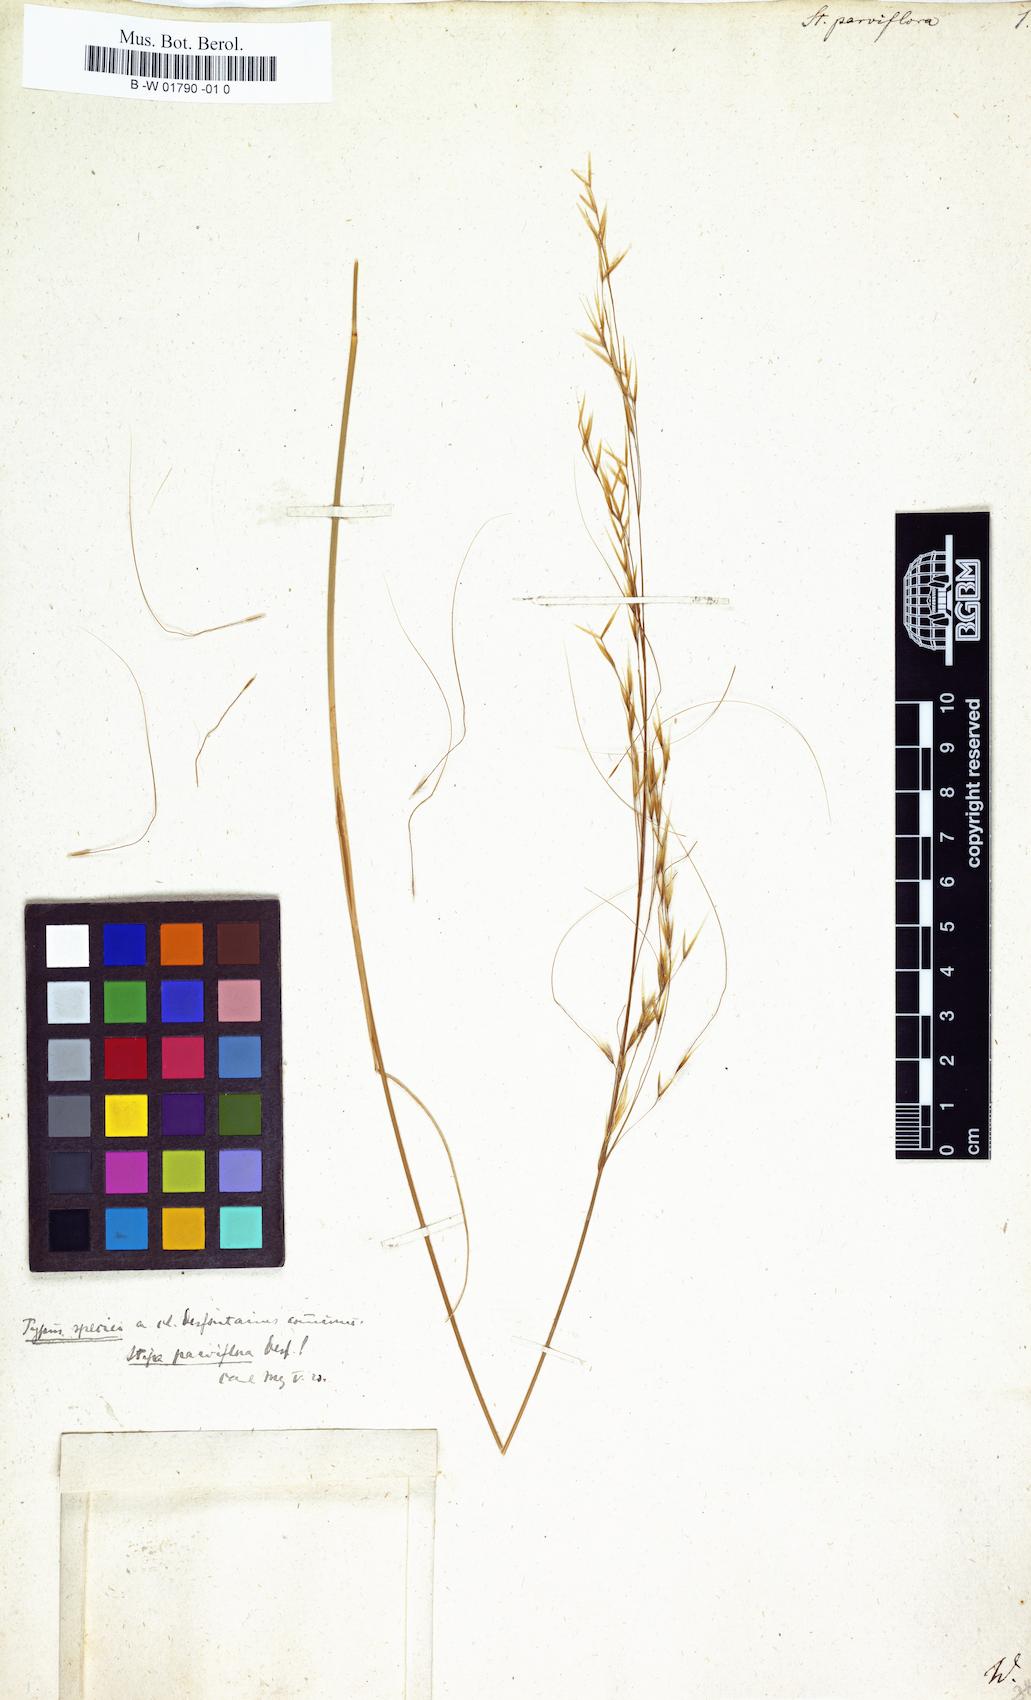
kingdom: Plantae
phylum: Tracheophyta
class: Liliopsida
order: Poales
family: Poaceae
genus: Achnatherum
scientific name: Achnatherum parviflorum
